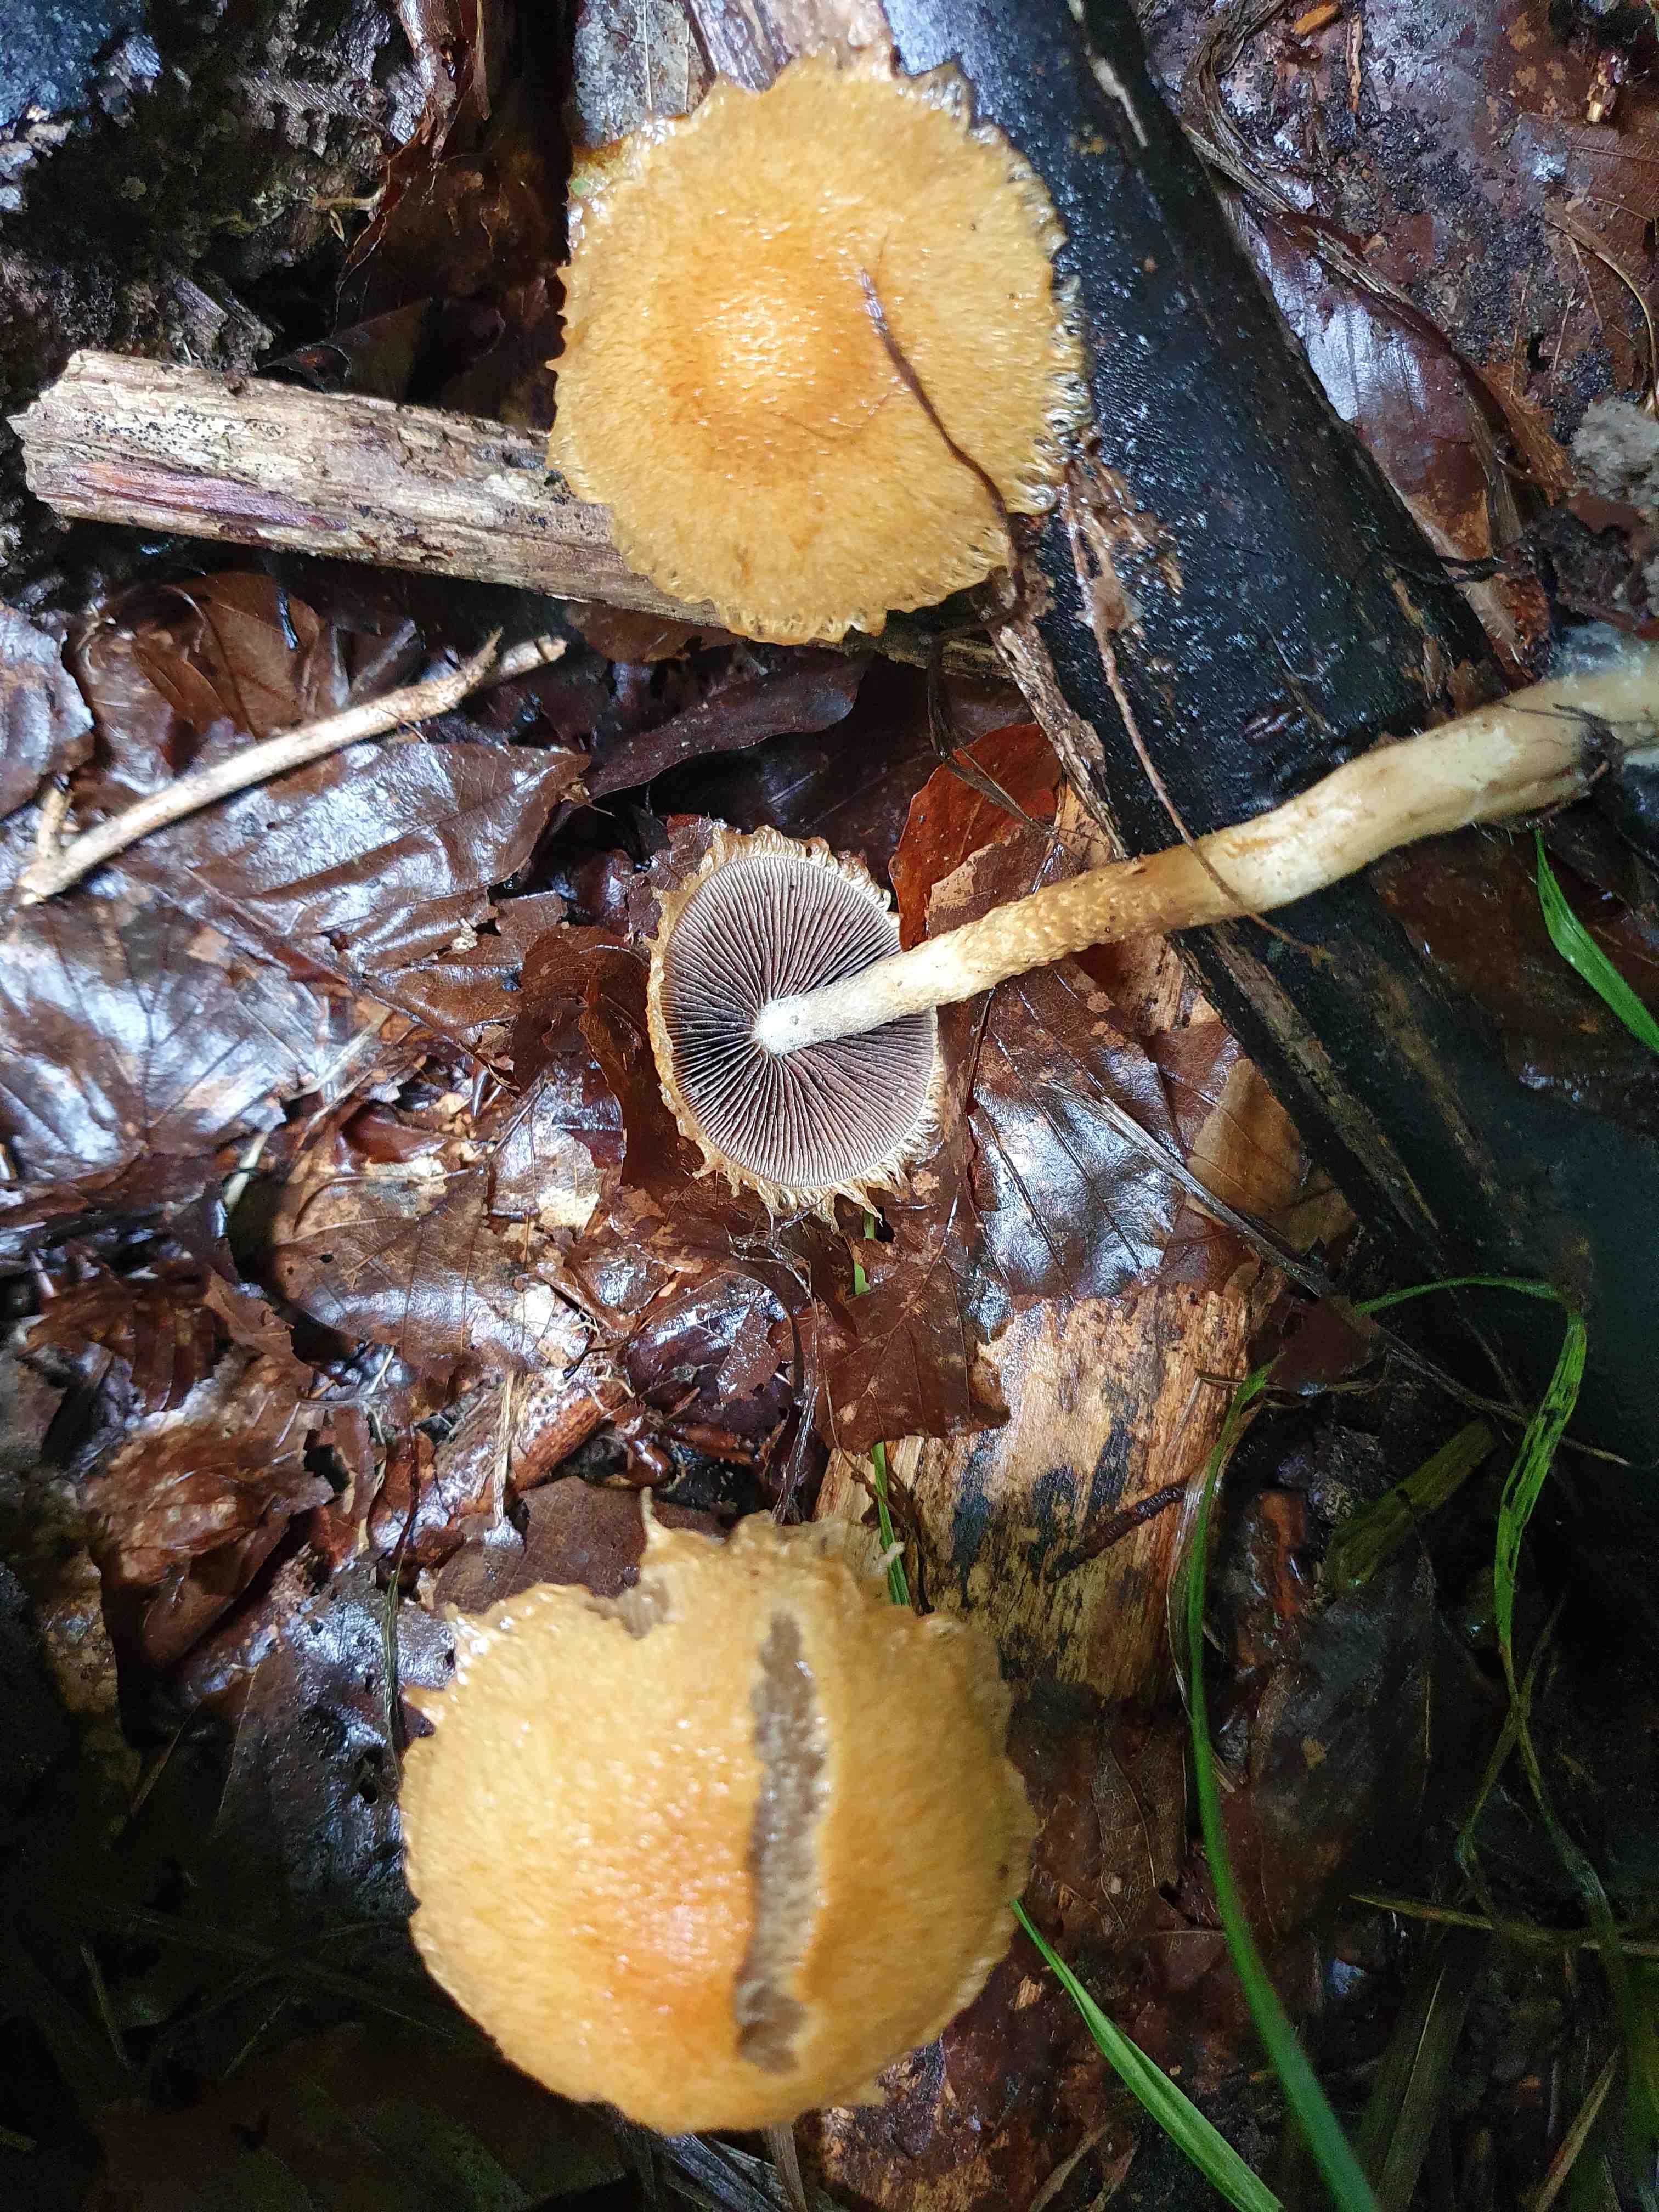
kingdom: Fungi
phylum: Basidiomycota
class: Agaricomycetes
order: Agaricales
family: Psathyrellaceae
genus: Lacrymaria
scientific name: Lacrymaria pyrotricha
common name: ildhåret mørkhat
